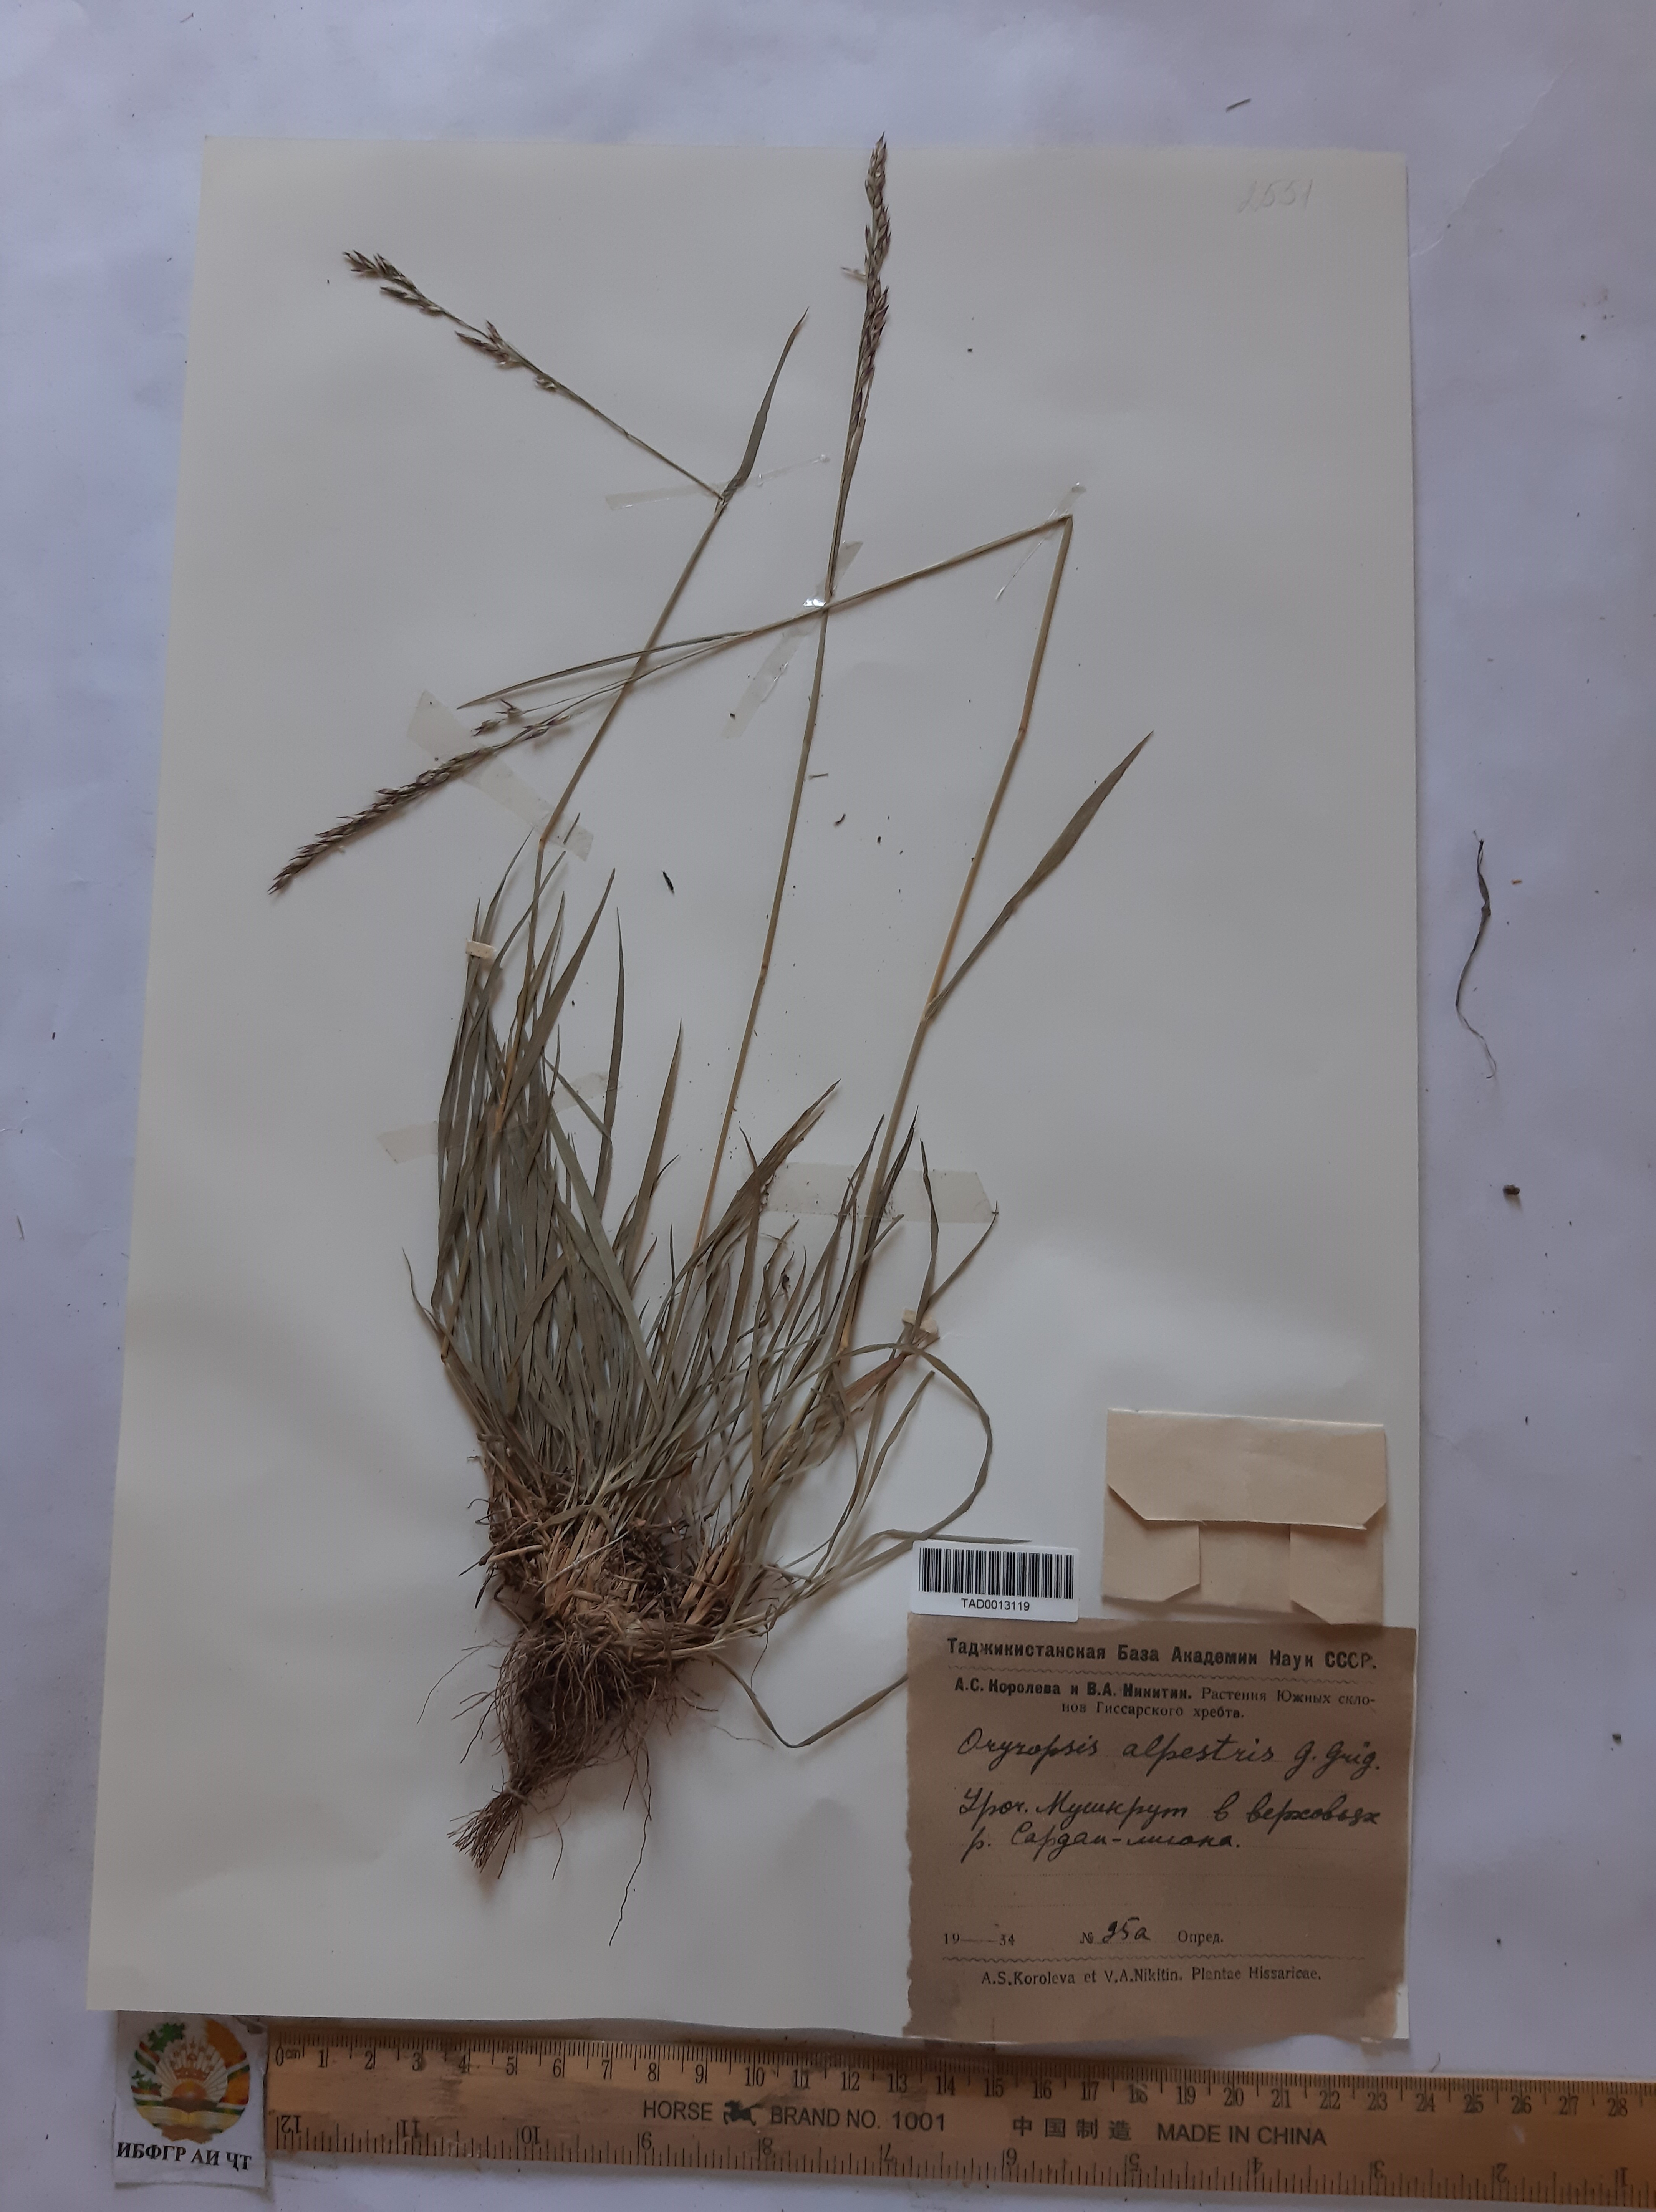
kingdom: Plantae
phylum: Tracheophyta
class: Liliopsida
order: Poales
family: Poaceae
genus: Piptatherum
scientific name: Piptatherum alpestre
